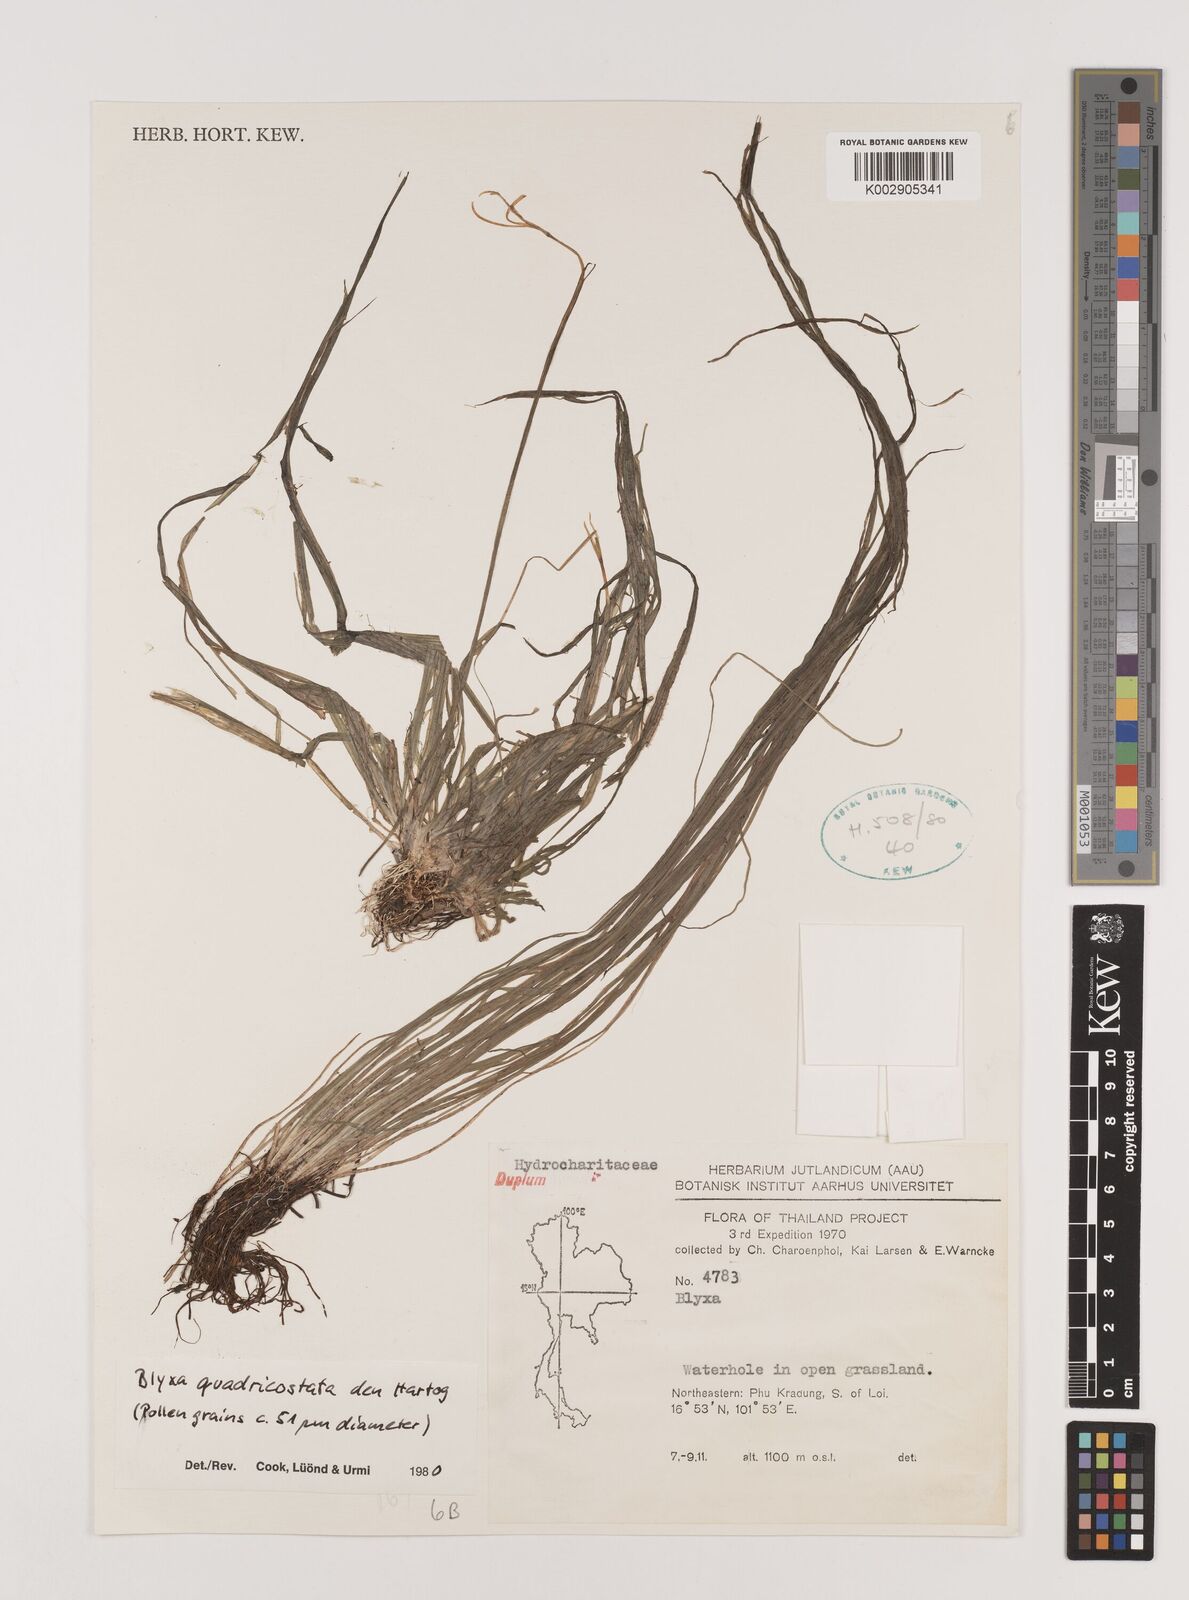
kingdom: Plantae
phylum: Tracheophyta
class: Liliopsida
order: Alismatales
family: Hydrocharitaceae
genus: Blyxa
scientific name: Blyxa quadricostata
